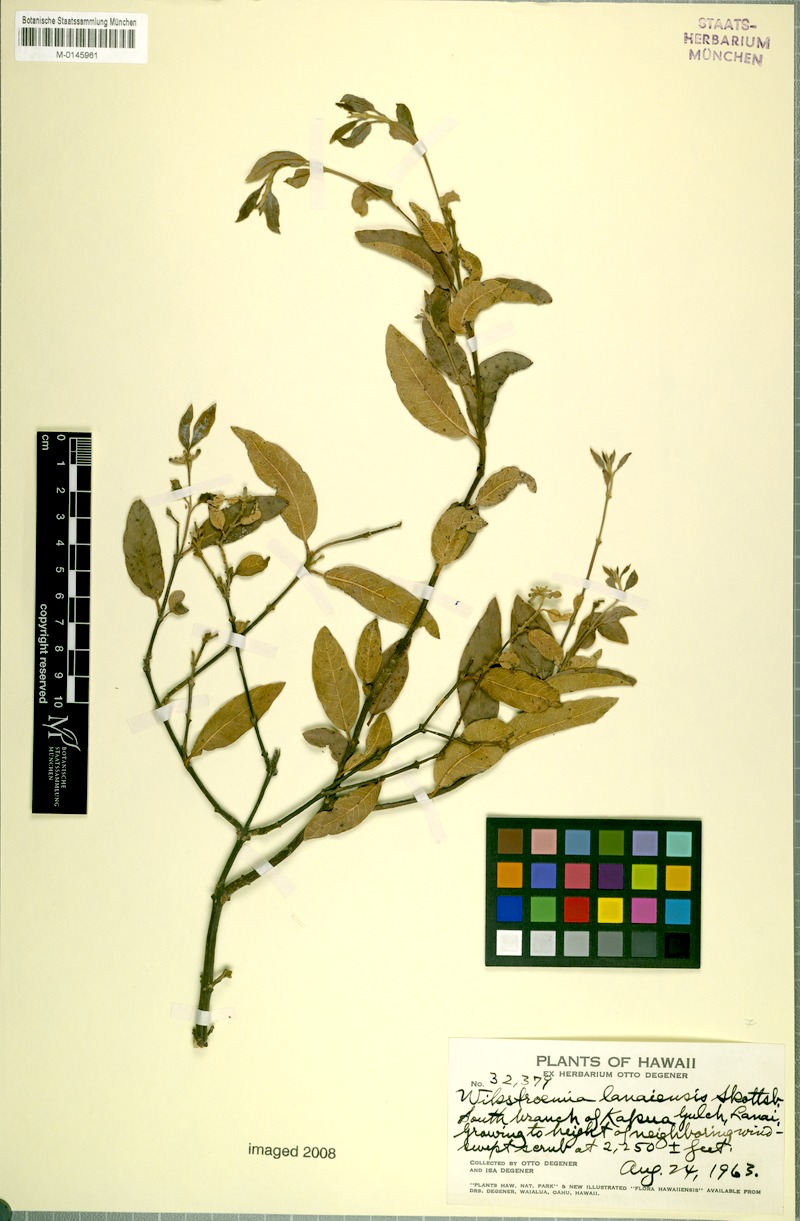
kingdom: Plantae
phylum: Tracheophyta
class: Magnoliopsida
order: Malvales
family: Thymelaeaceae
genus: Wikstroemia
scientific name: Wikstroemia oahuensis
